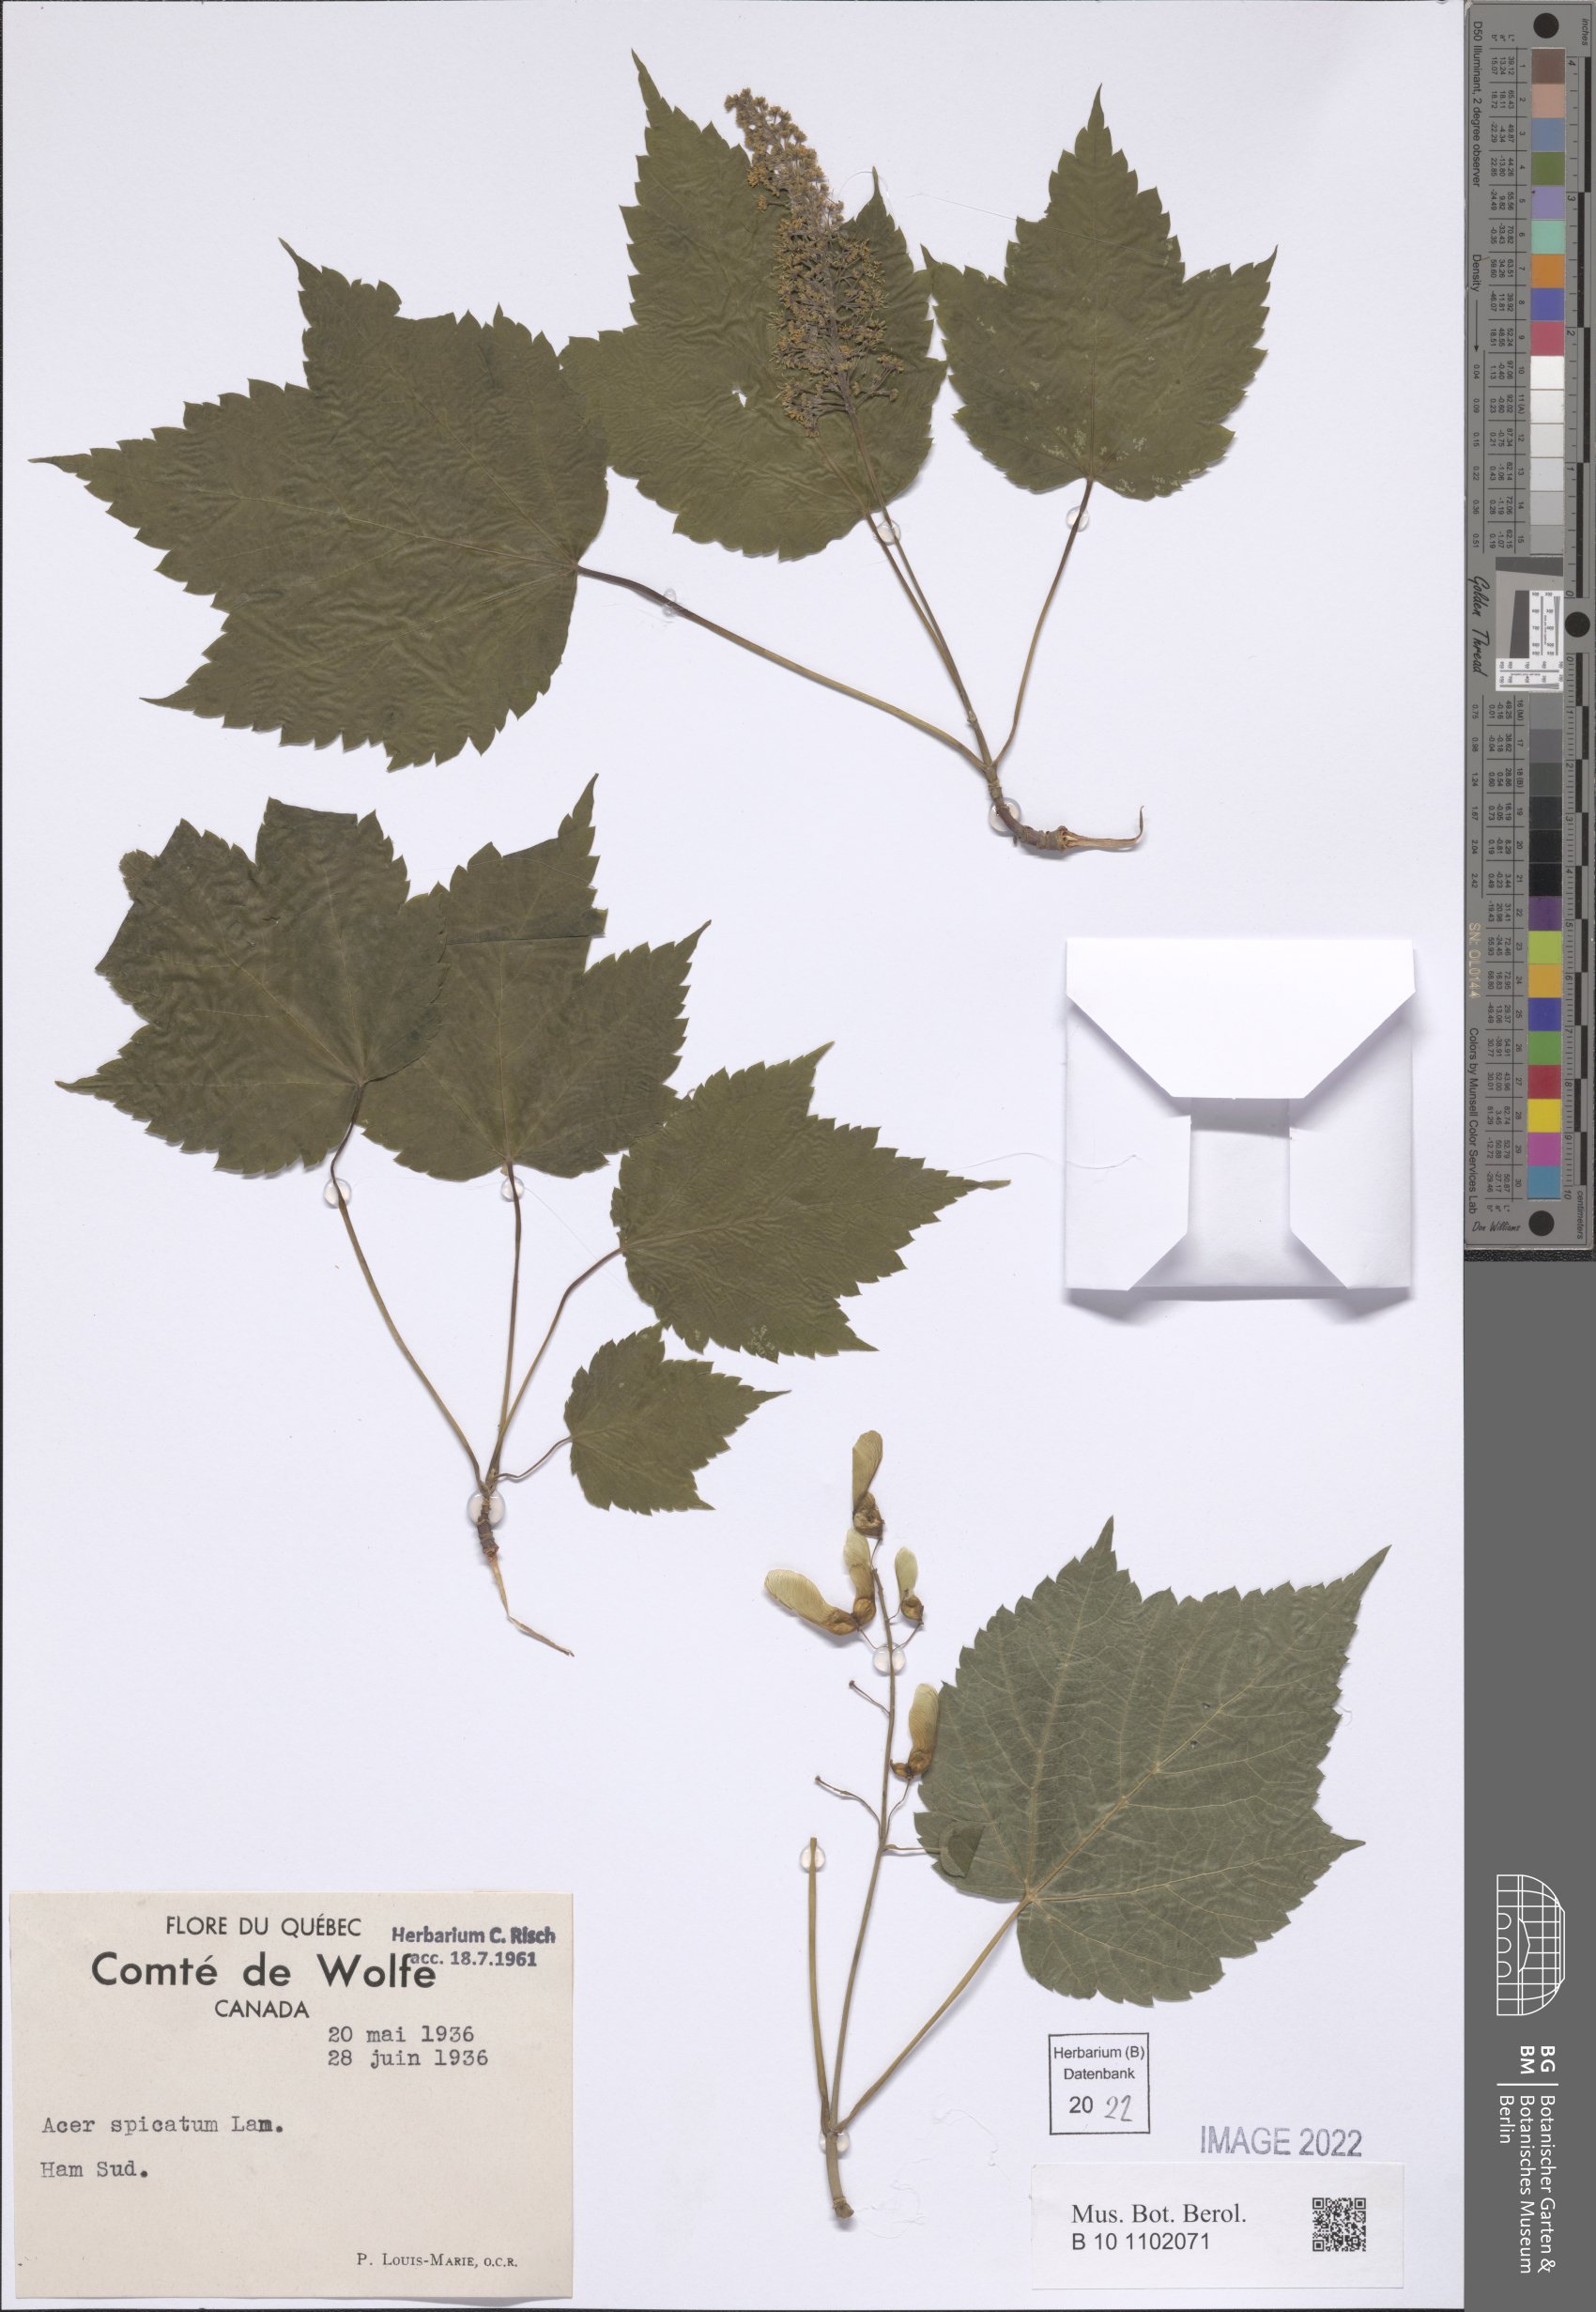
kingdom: Plantae
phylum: Tracheophyta
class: Magnoliopsida
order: Sapindales
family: Sapindaceae
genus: Acer
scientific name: Acer spicatum
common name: Mountain maple
